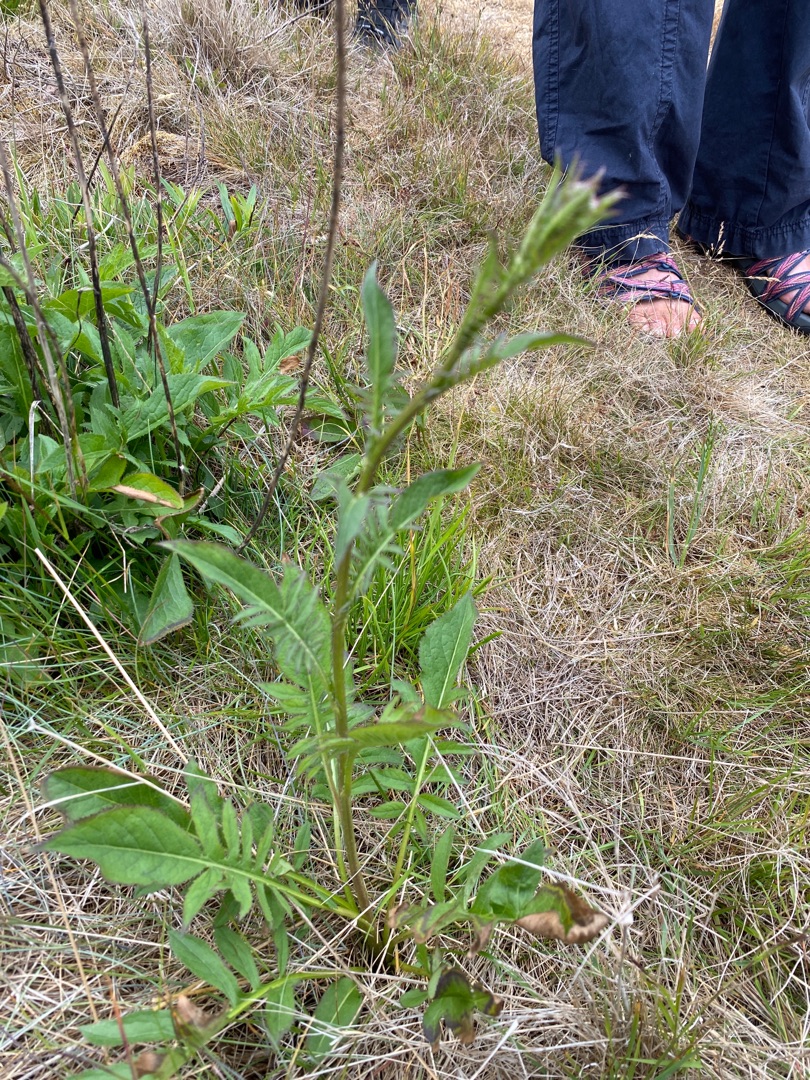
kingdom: Plantae
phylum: Tracheophyta
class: Magnoliopsida
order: Asterales
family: Asteraceae
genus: Serratula
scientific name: Serratula tinctoria
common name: Eng-skær
